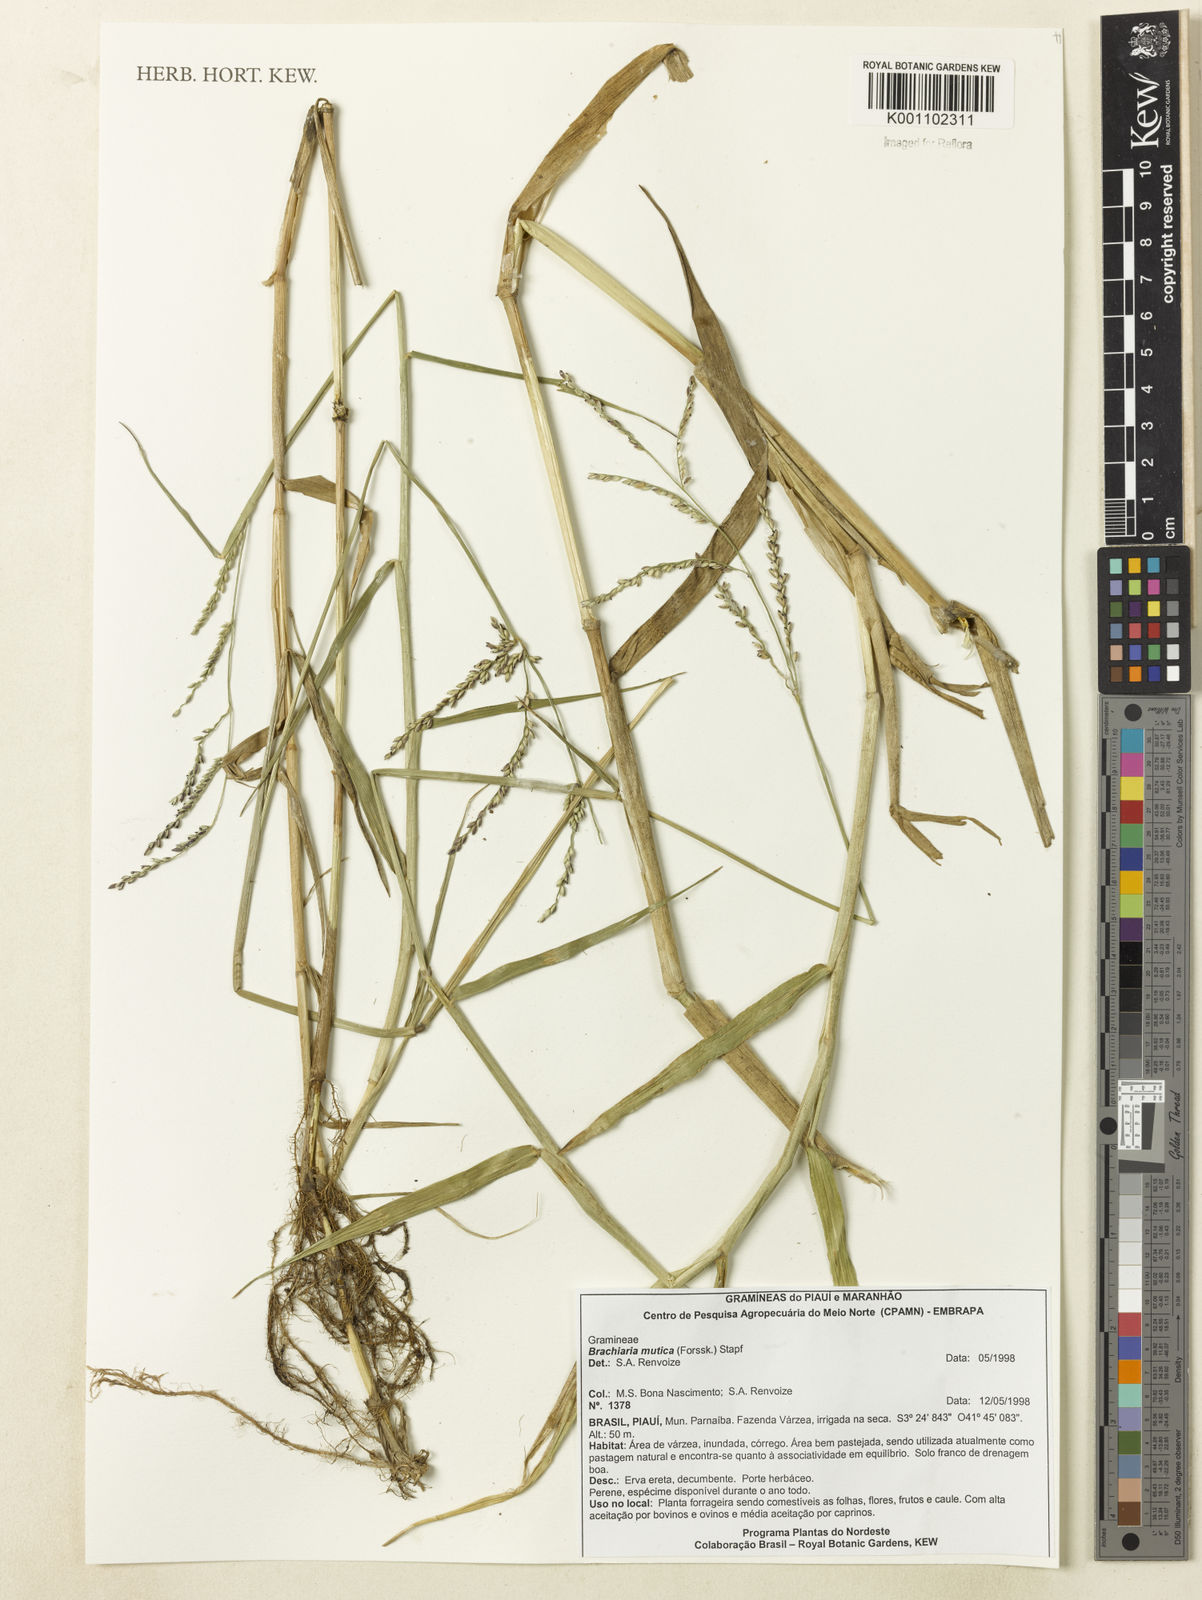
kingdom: Plantae
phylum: Tracheophyta
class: Liliopsida
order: Poales
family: Poaceae
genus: Urochloa
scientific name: Urochloa mutica
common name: Para grass
